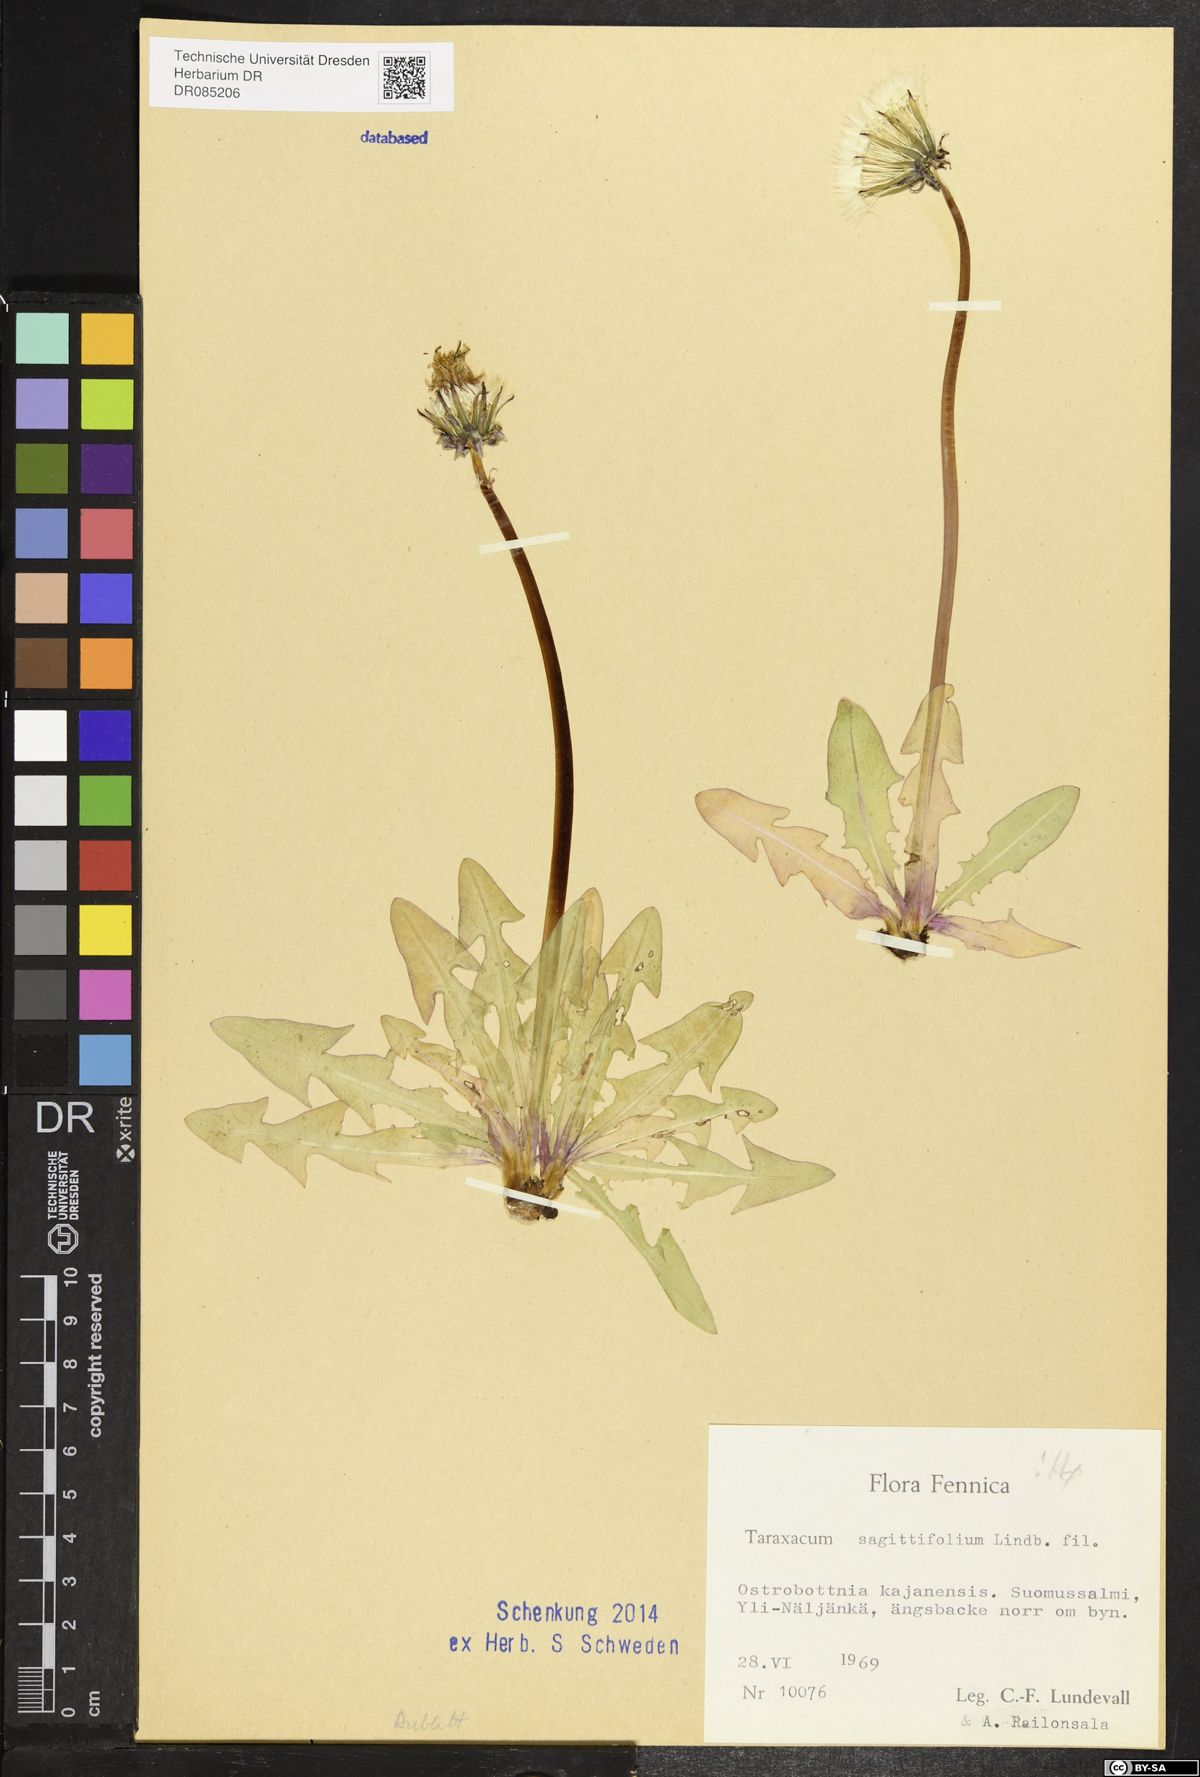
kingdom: Plantae
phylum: Tracheophyta
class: Magnoliopsida
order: Asterales
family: Asteraceae
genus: Taraxacum
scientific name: Taraxacum sagittifolium
